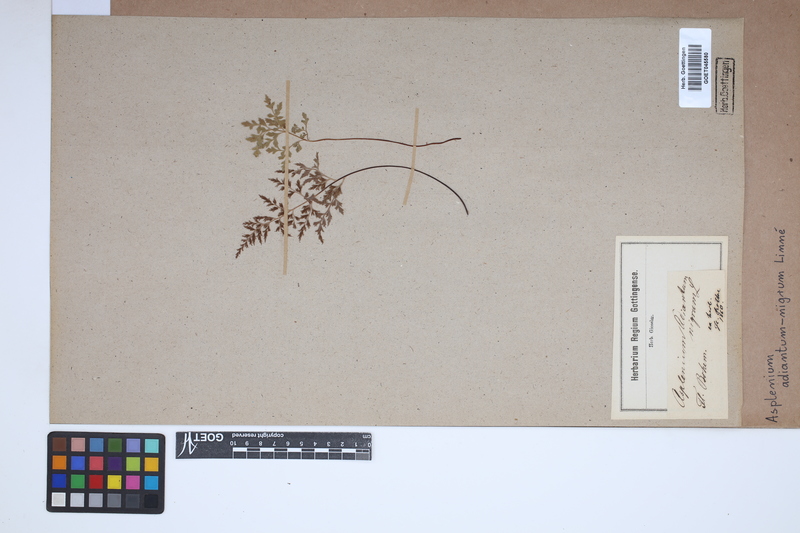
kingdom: Plantae
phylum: Tracheophyta
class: Polypodiopsida
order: Polypodiales
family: Aspleniaceae
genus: Asplenium
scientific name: Asplenium adiantum-nigrum
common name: Black spleenwort
